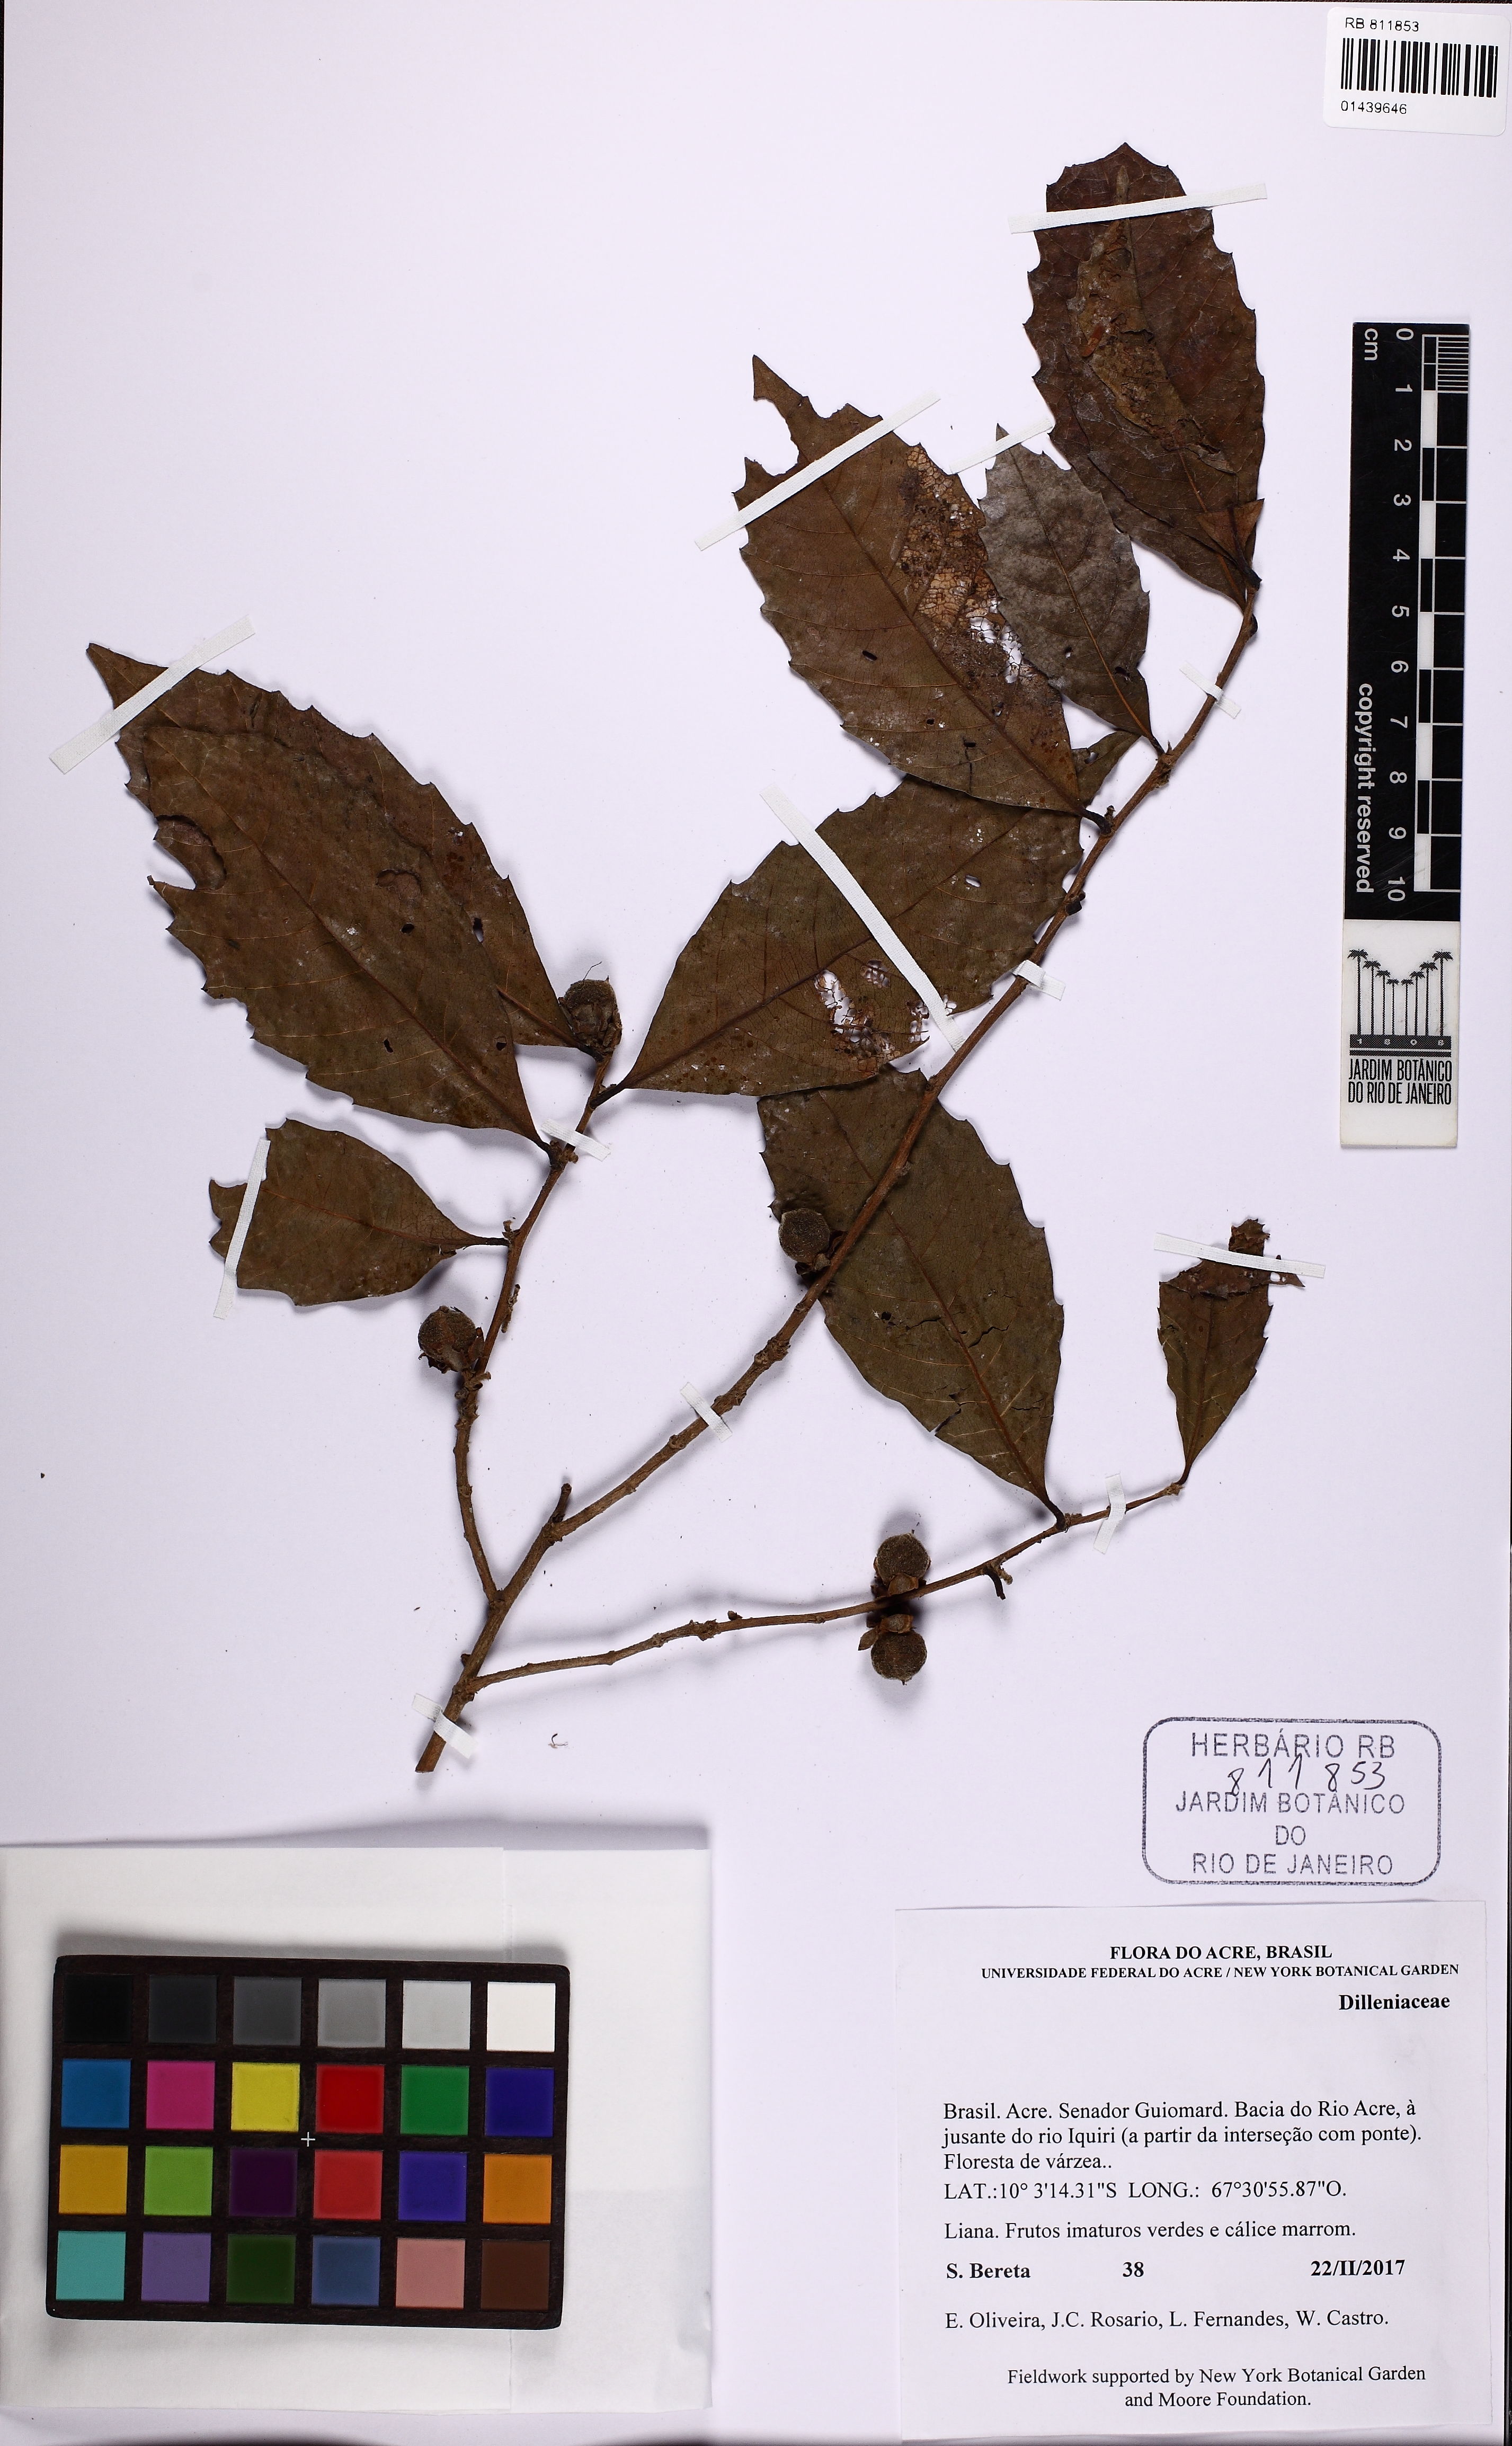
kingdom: Plantae
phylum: Tracheophyta
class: Magnoliopsida
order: Dilleniales
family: Dilleniaceae
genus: Doliocarpus
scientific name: Doliocarpus major
